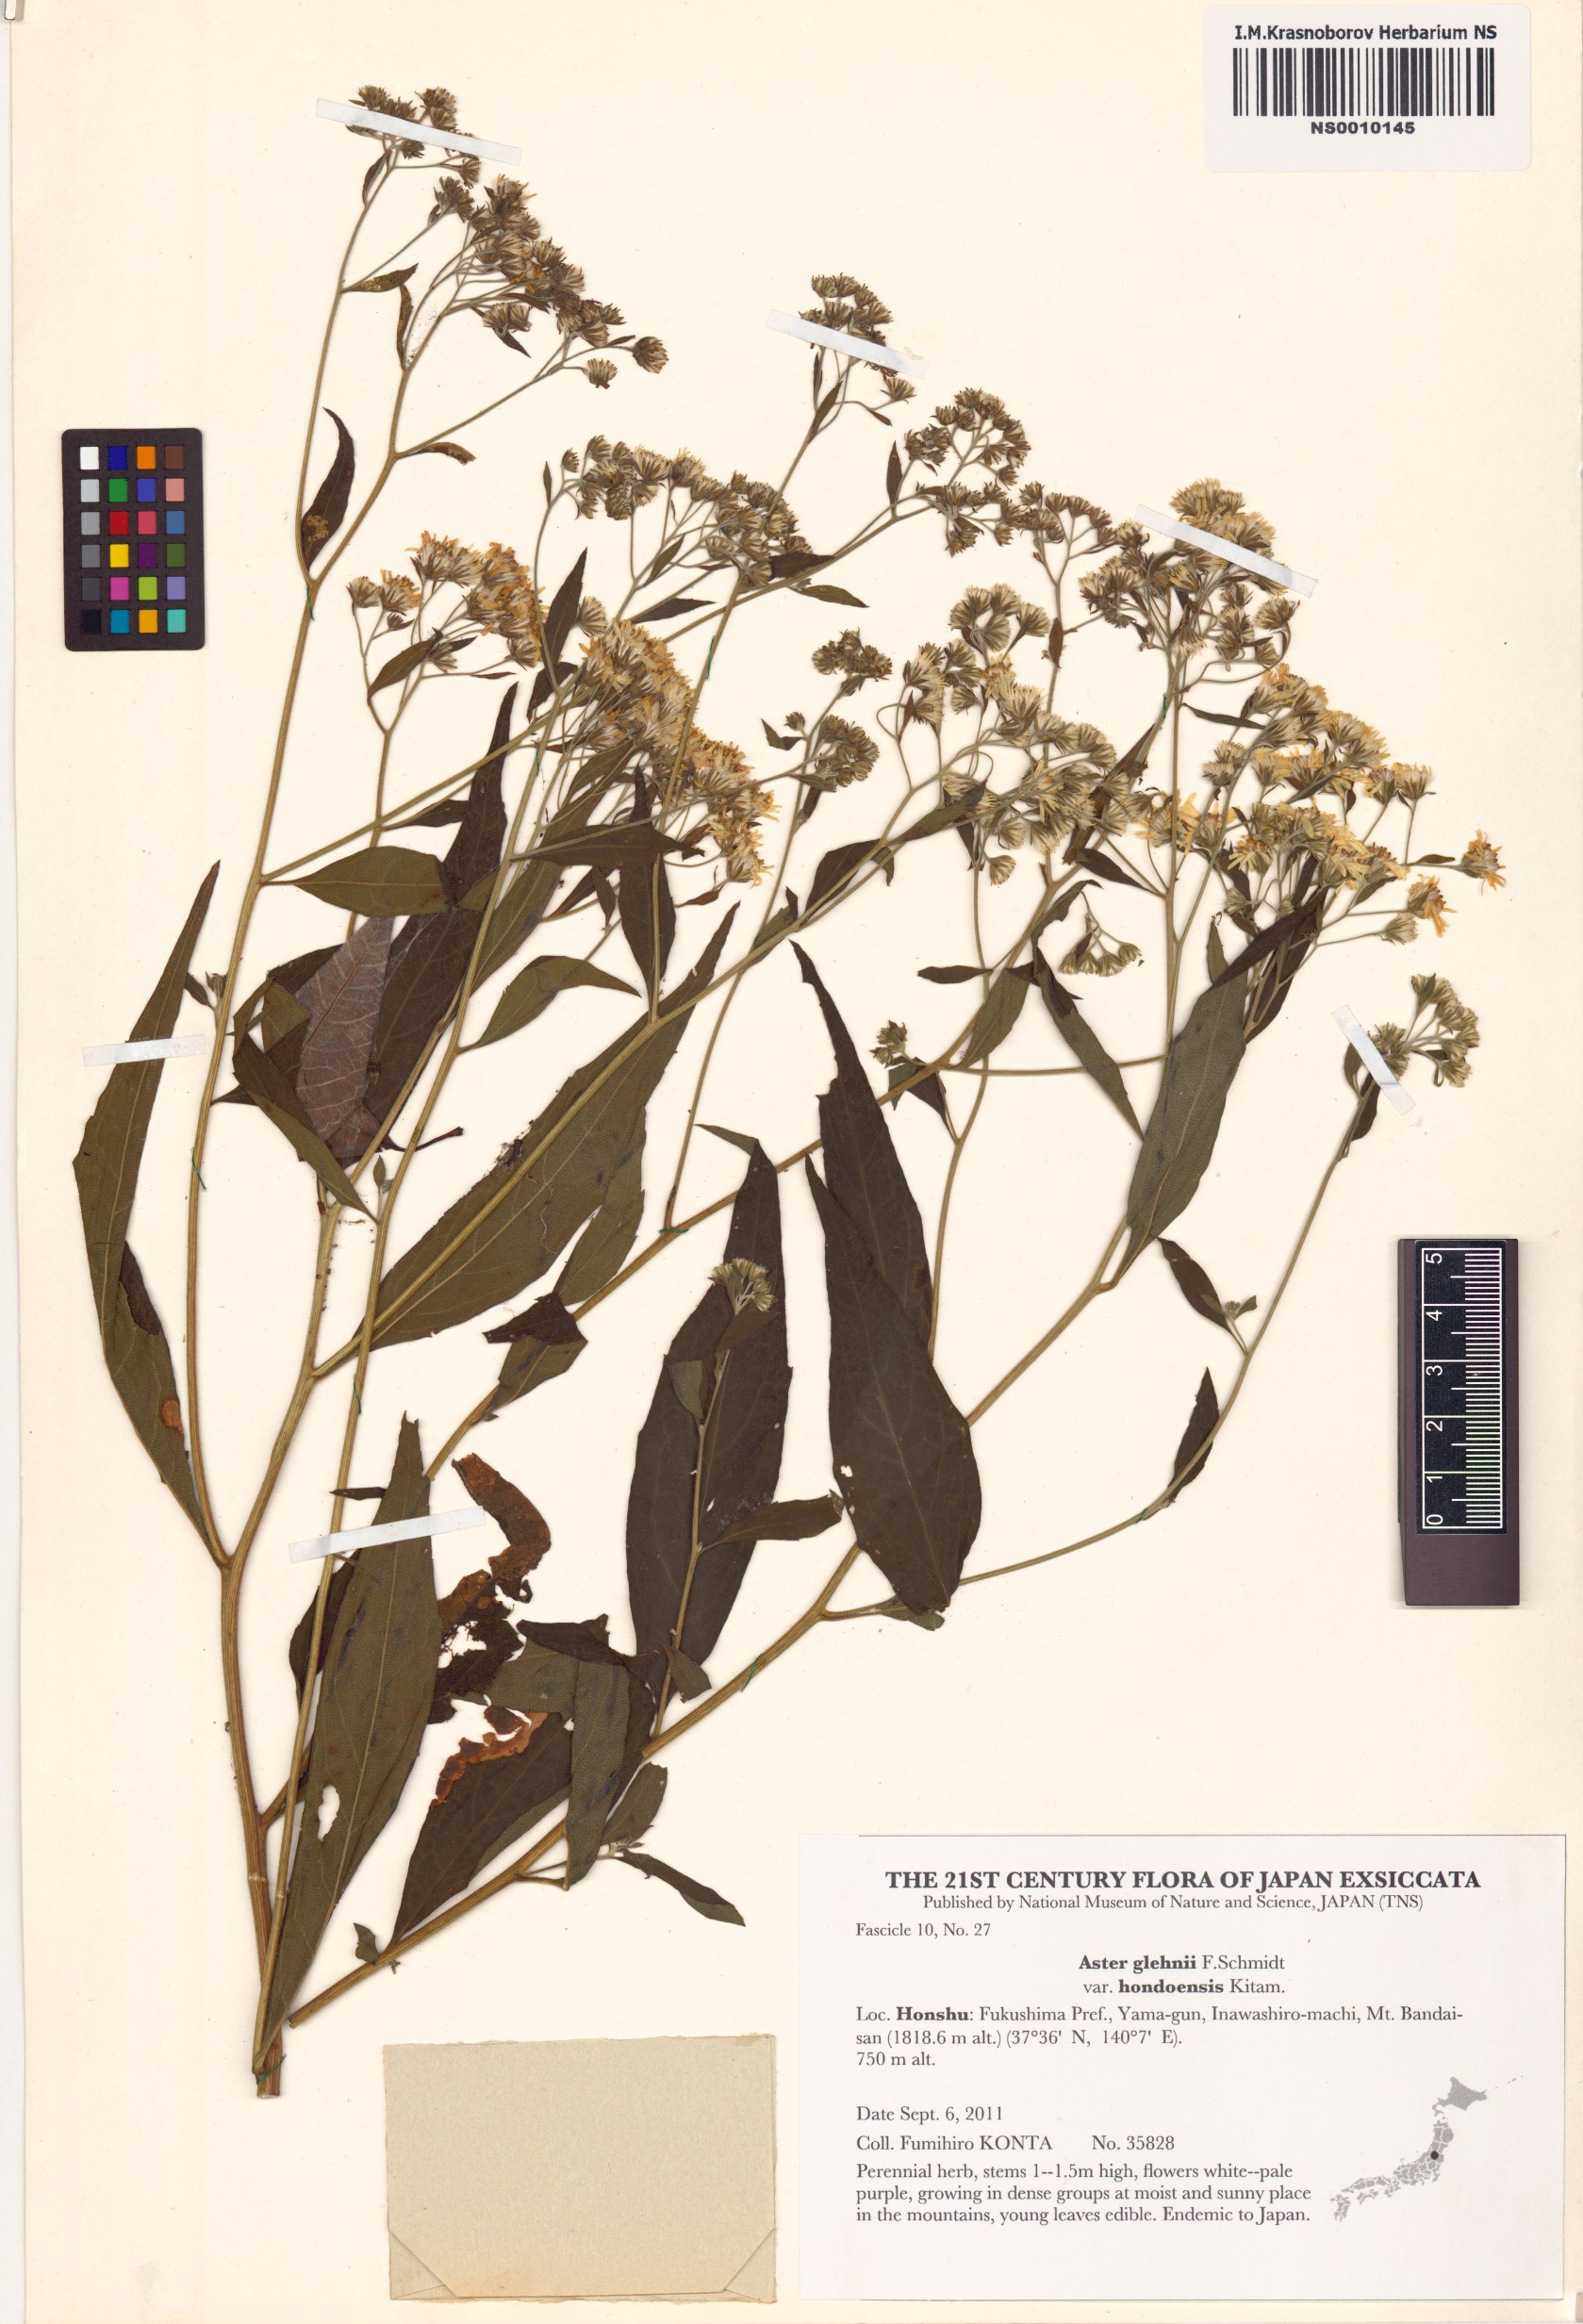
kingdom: Plantae
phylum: Tracheophyta
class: Magnoliopsida
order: Asterales
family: Asteraceae
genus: Kitamuria
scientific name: Kitamuria glehnii
